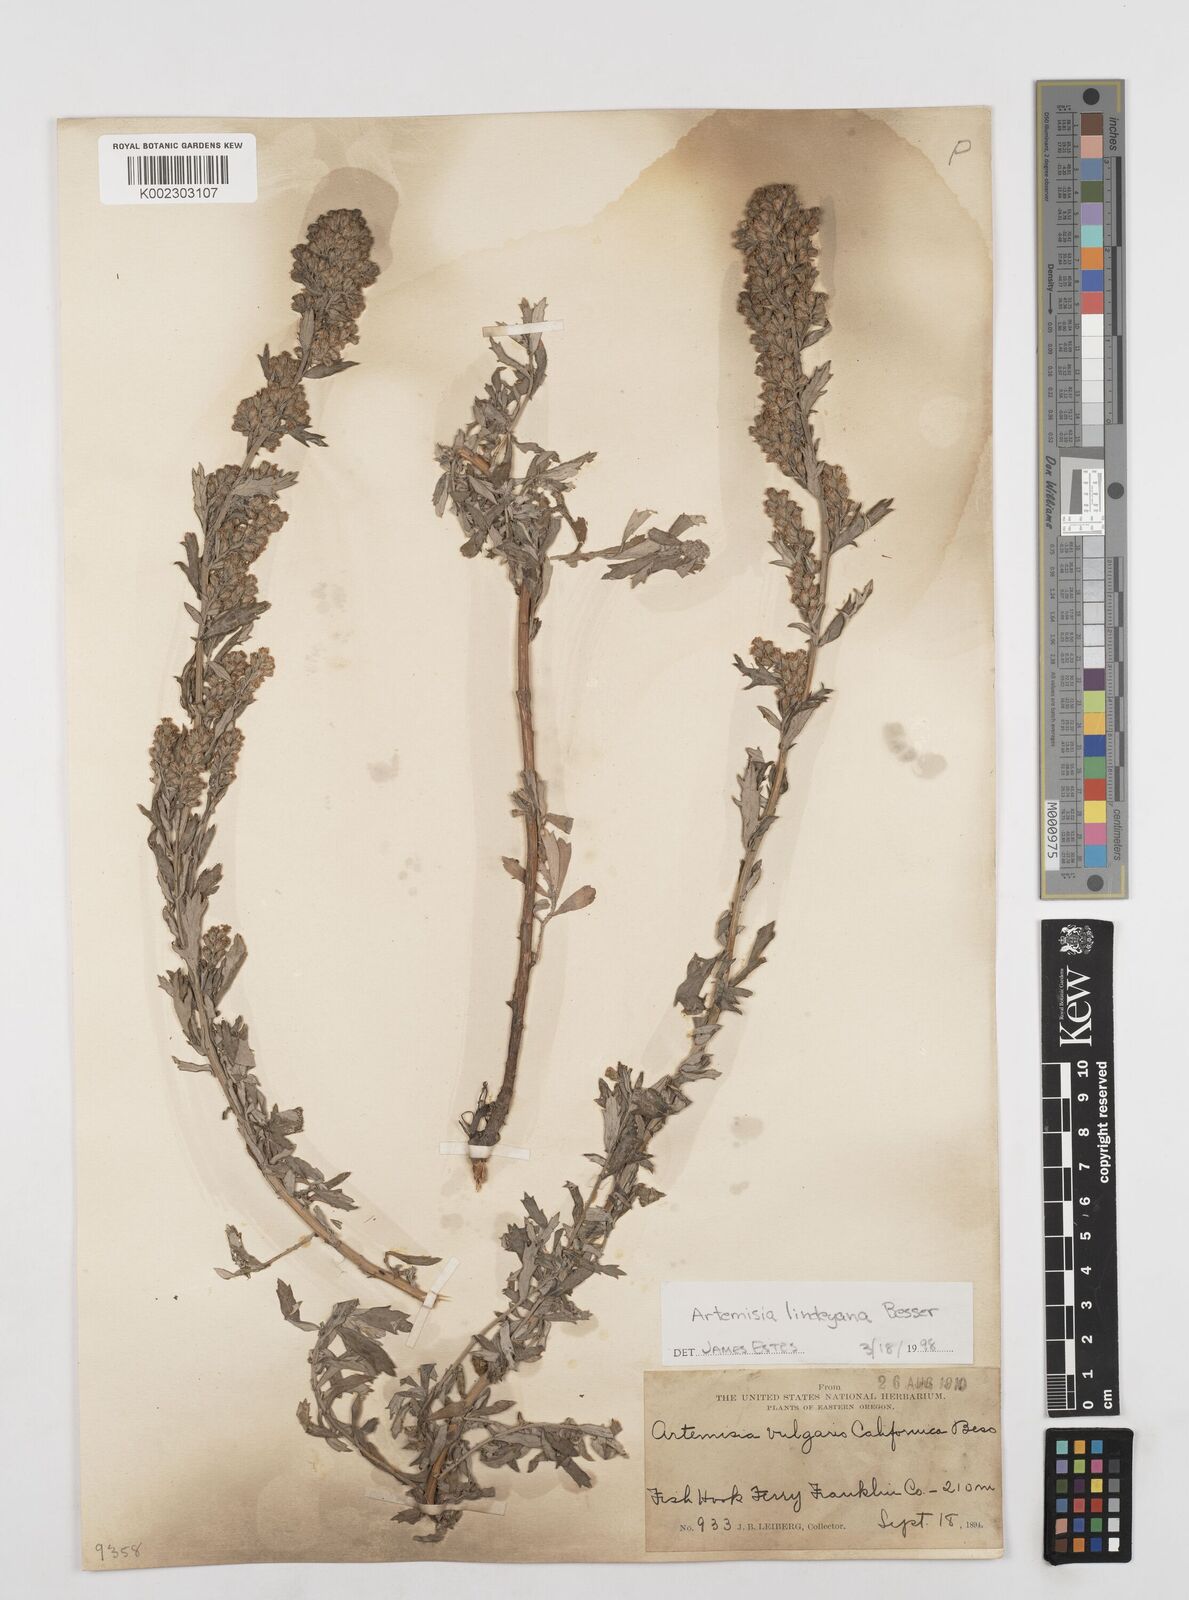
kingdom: Plantae
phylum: Tracheophyta
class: Magnoliopsida
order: Asterales
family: Asteraceae
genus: Artemisia
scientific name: Artemisia ludoviciana
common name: Western mugwort
